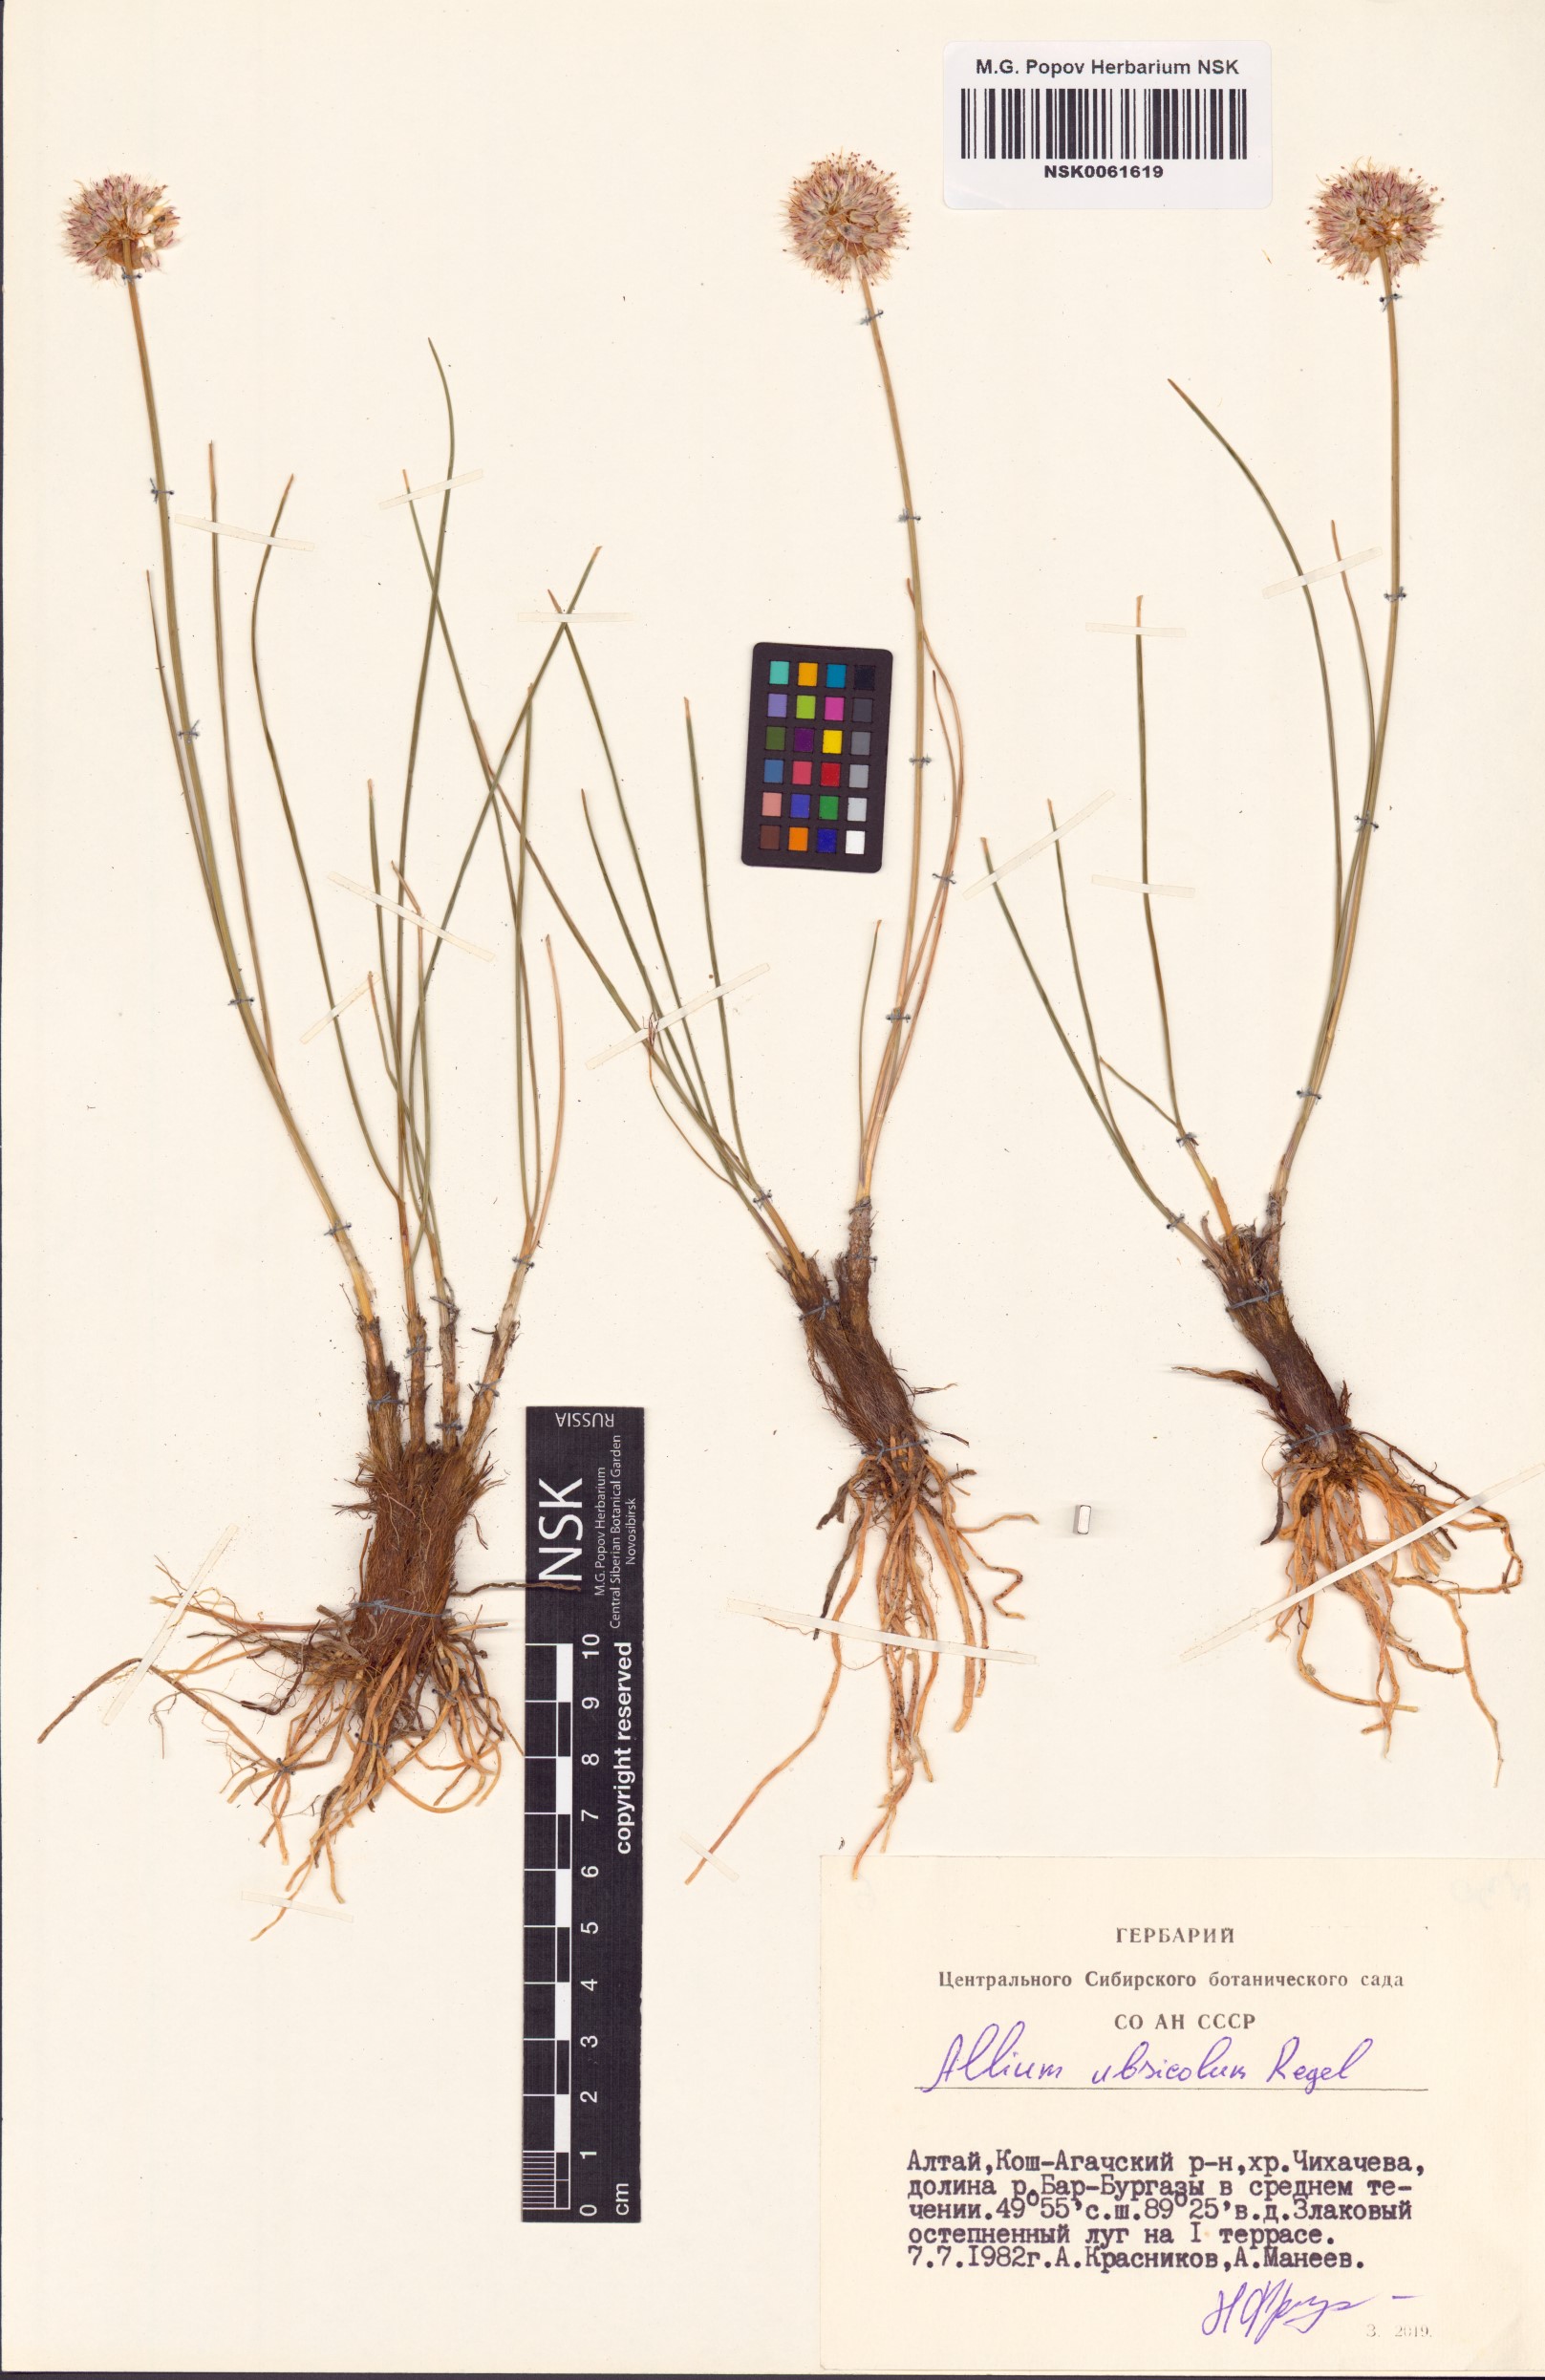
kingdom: Plantae
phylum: Tracheophyta
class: Liliopsida
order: Asparagales
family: Amaryllidaceae
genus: Allium
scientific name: Allium ubsicola
